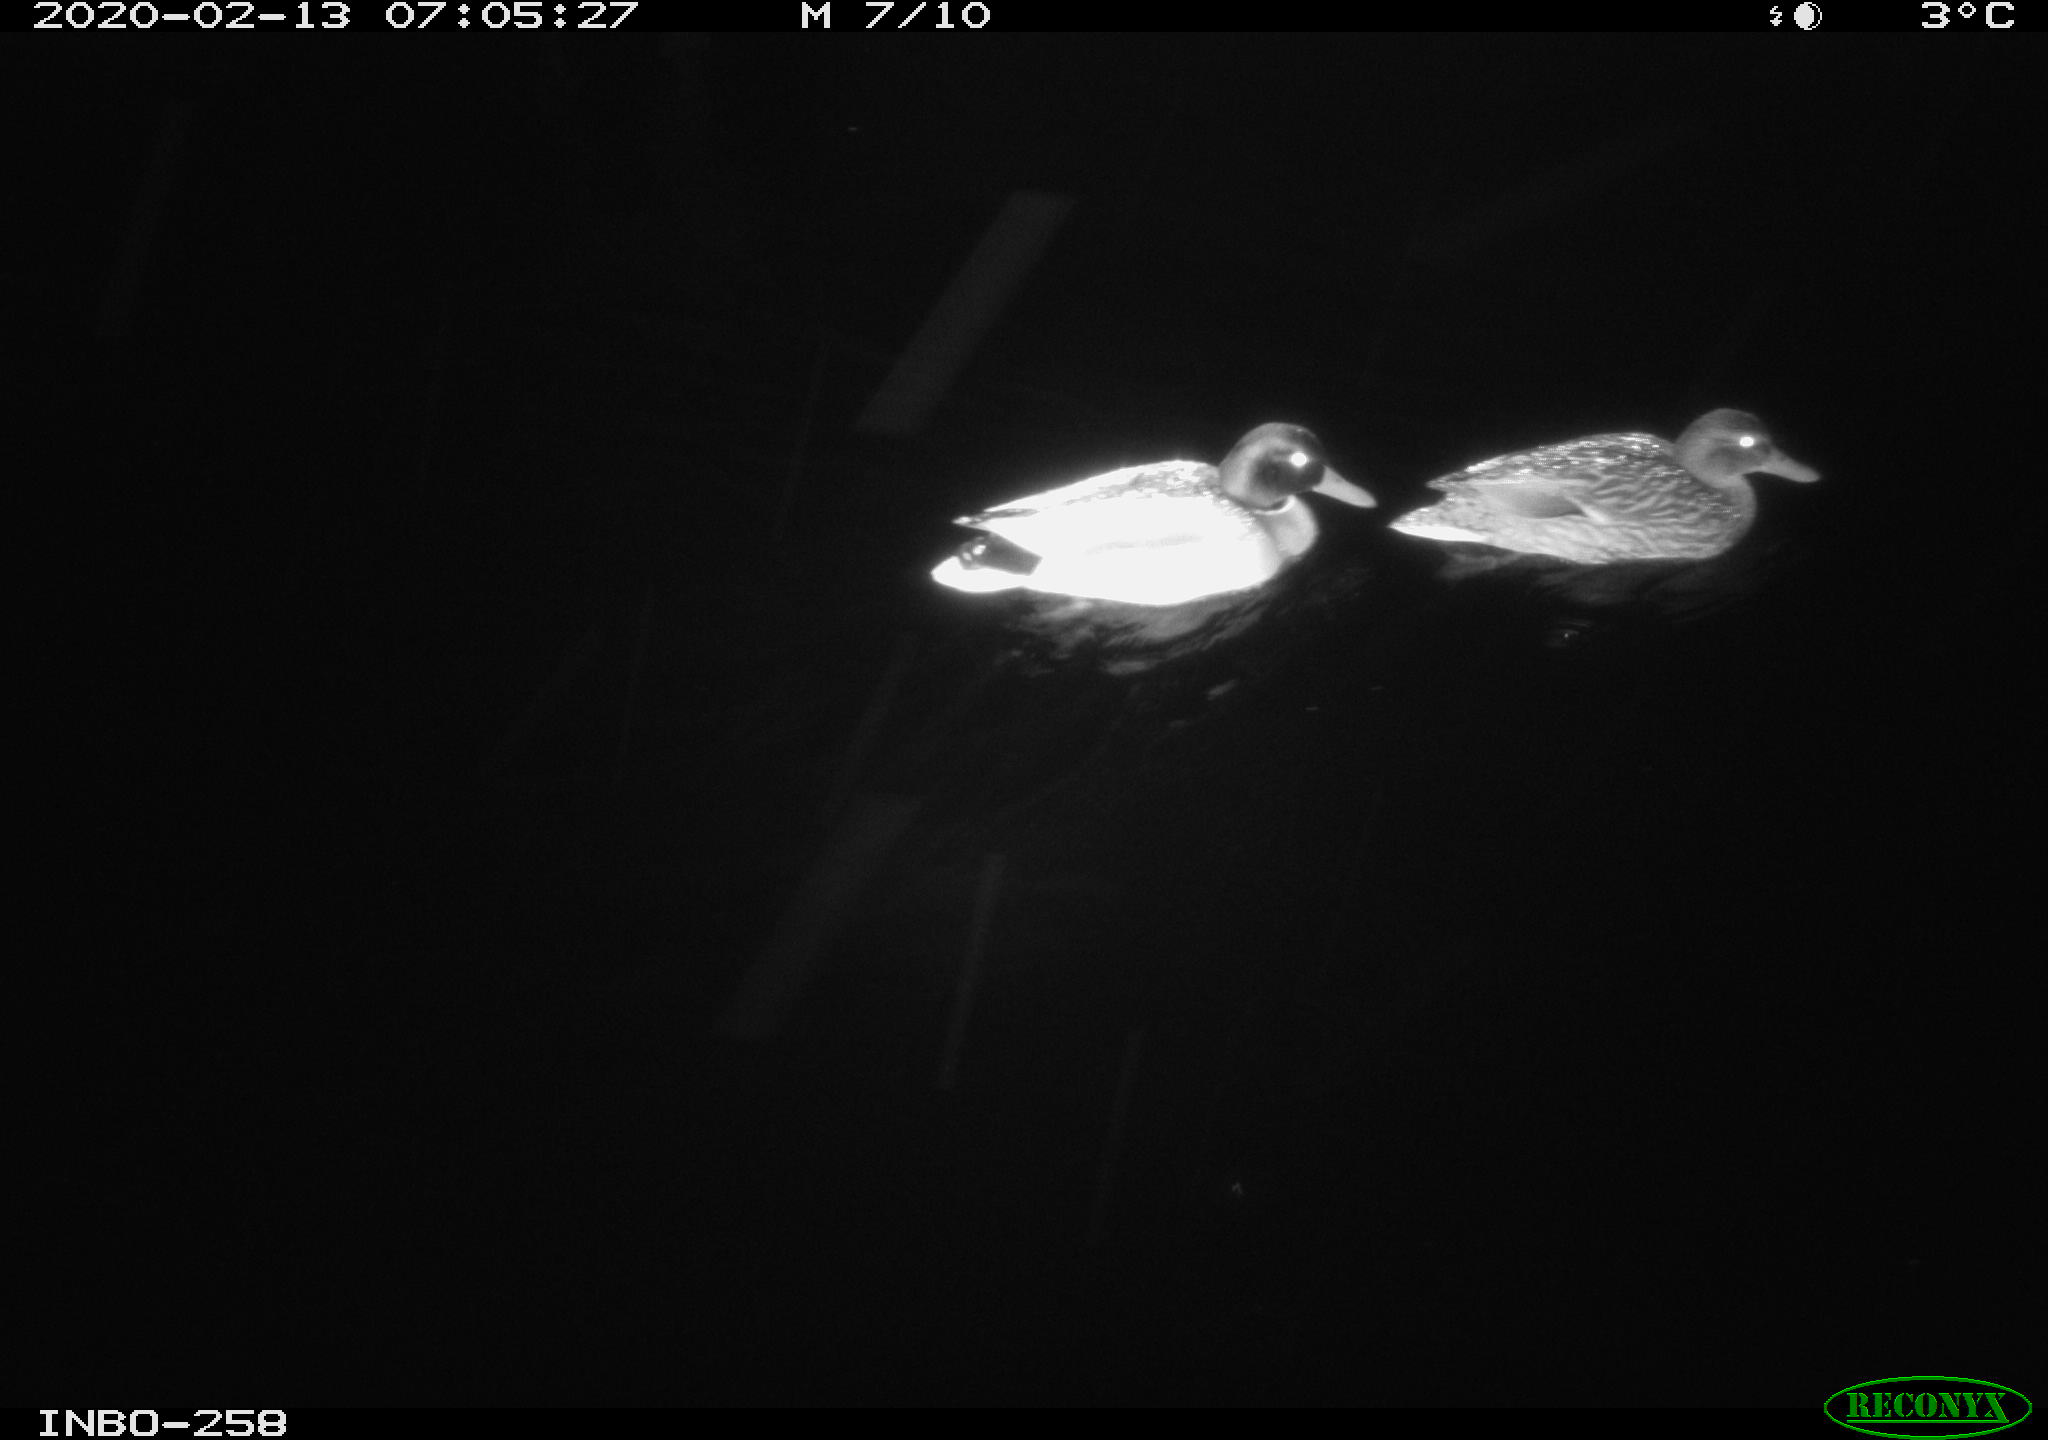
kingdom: Animalia
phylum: Chordata
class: Aves
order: Anseriformes
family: Anatidae
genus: Anas
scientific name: Anas platyrhynchos
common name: Mallard
